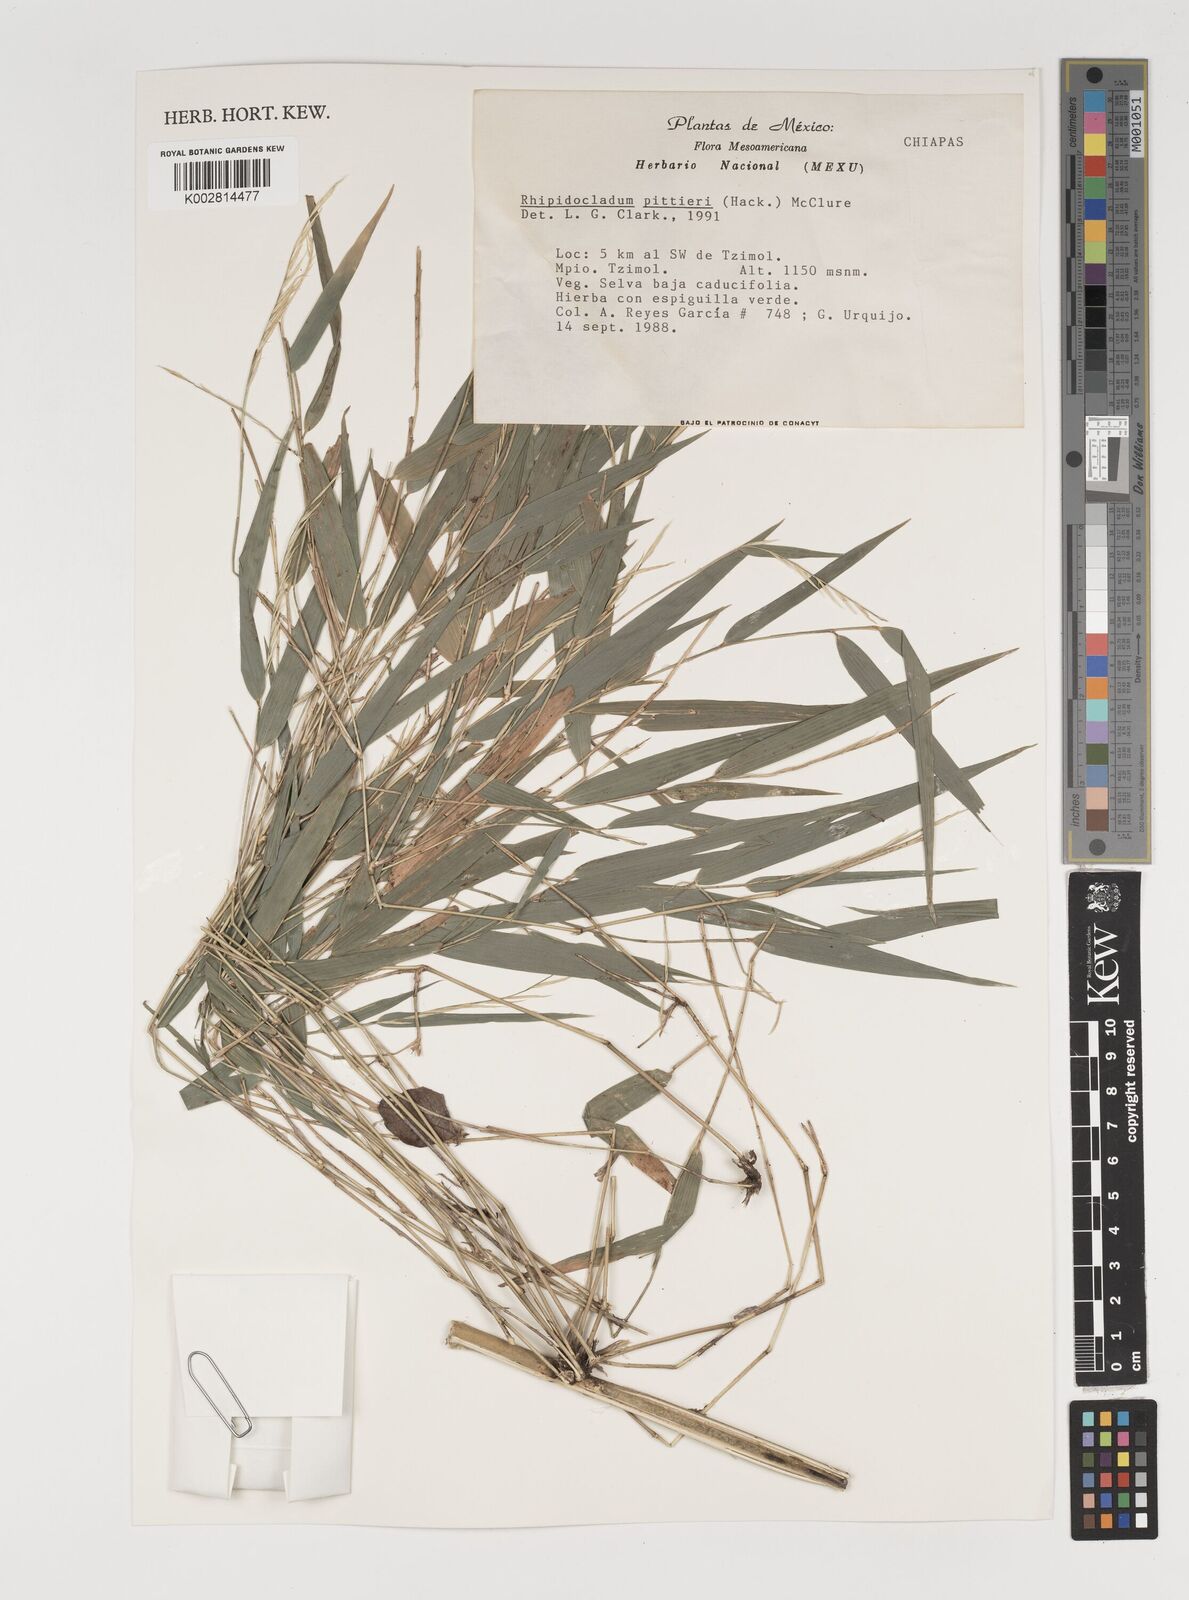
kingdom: Plantae
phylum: Tracheophyta
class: Liliopsida
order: Poales
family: Poaceae
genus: Rhipidocladum
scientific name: Rhipidocladum pittieri
